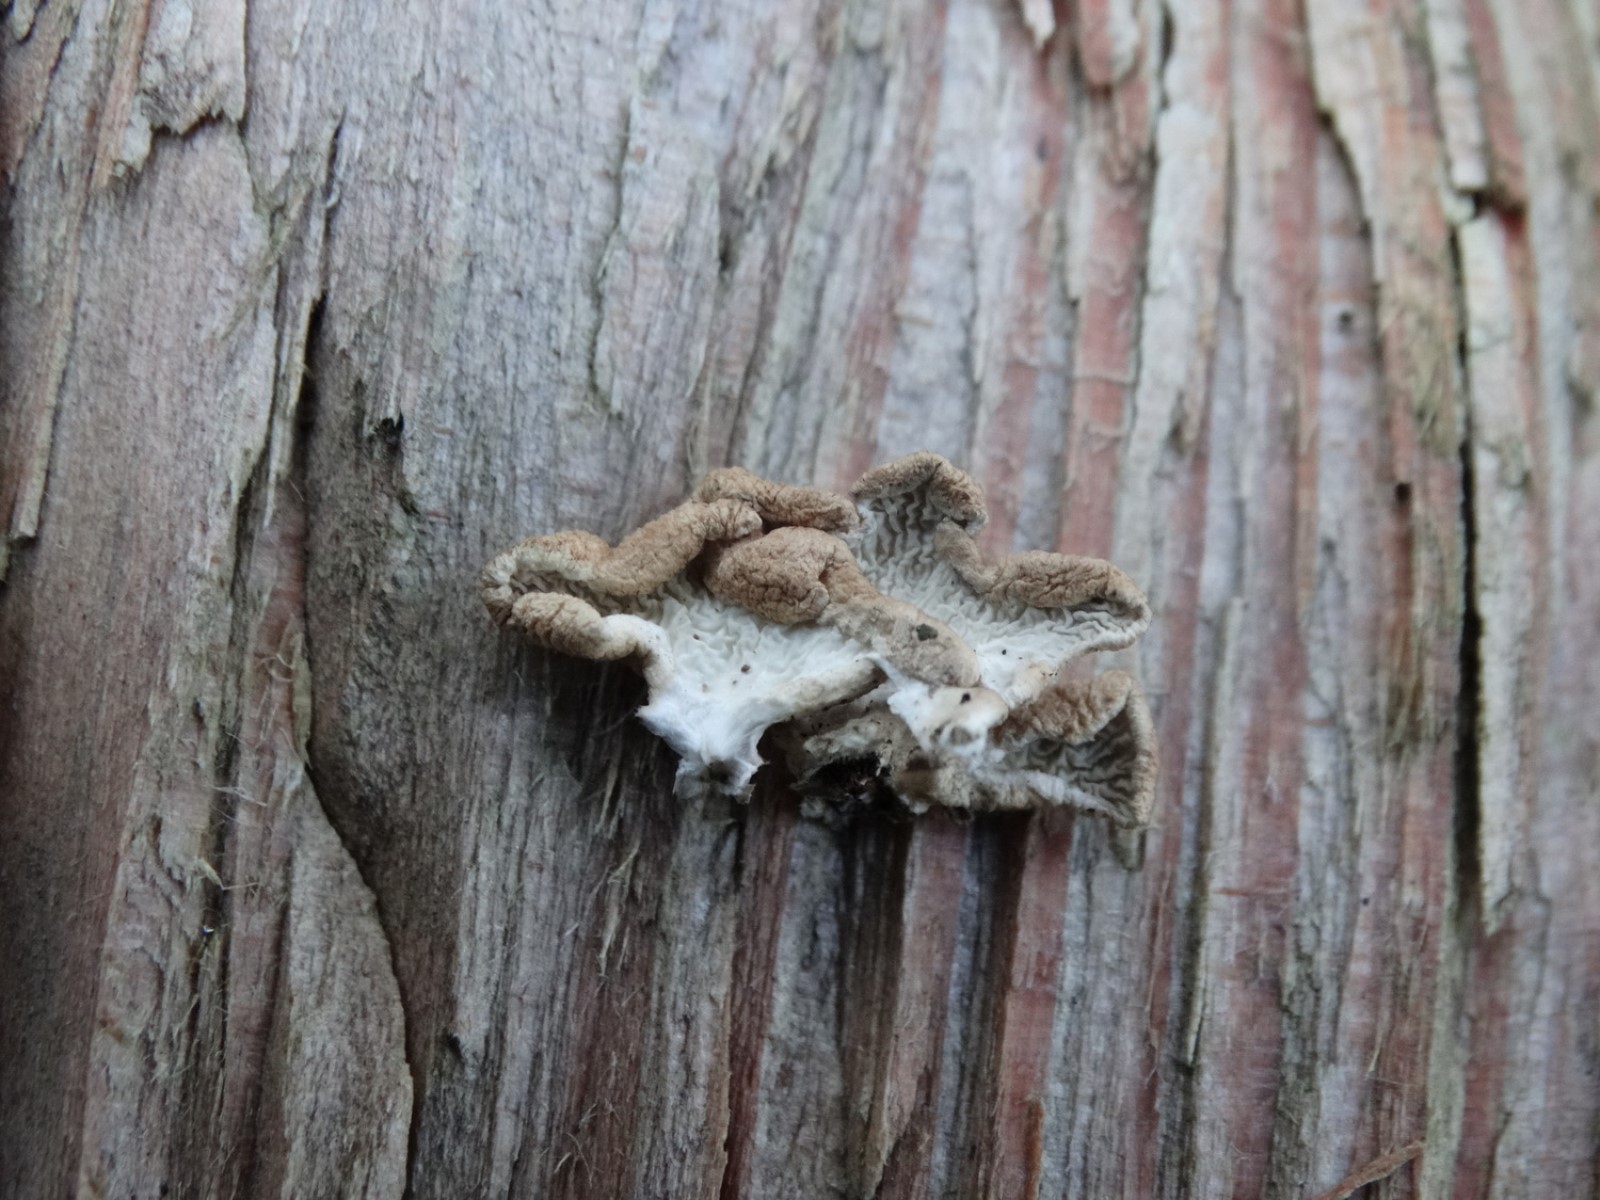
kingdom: Fungi
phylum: Basidiomycota
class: Agaricomycetes
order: Amylocorticiales
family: Amylocorticiaceae
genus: Plicaturopsis
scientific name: Plicaturopsis crispa
